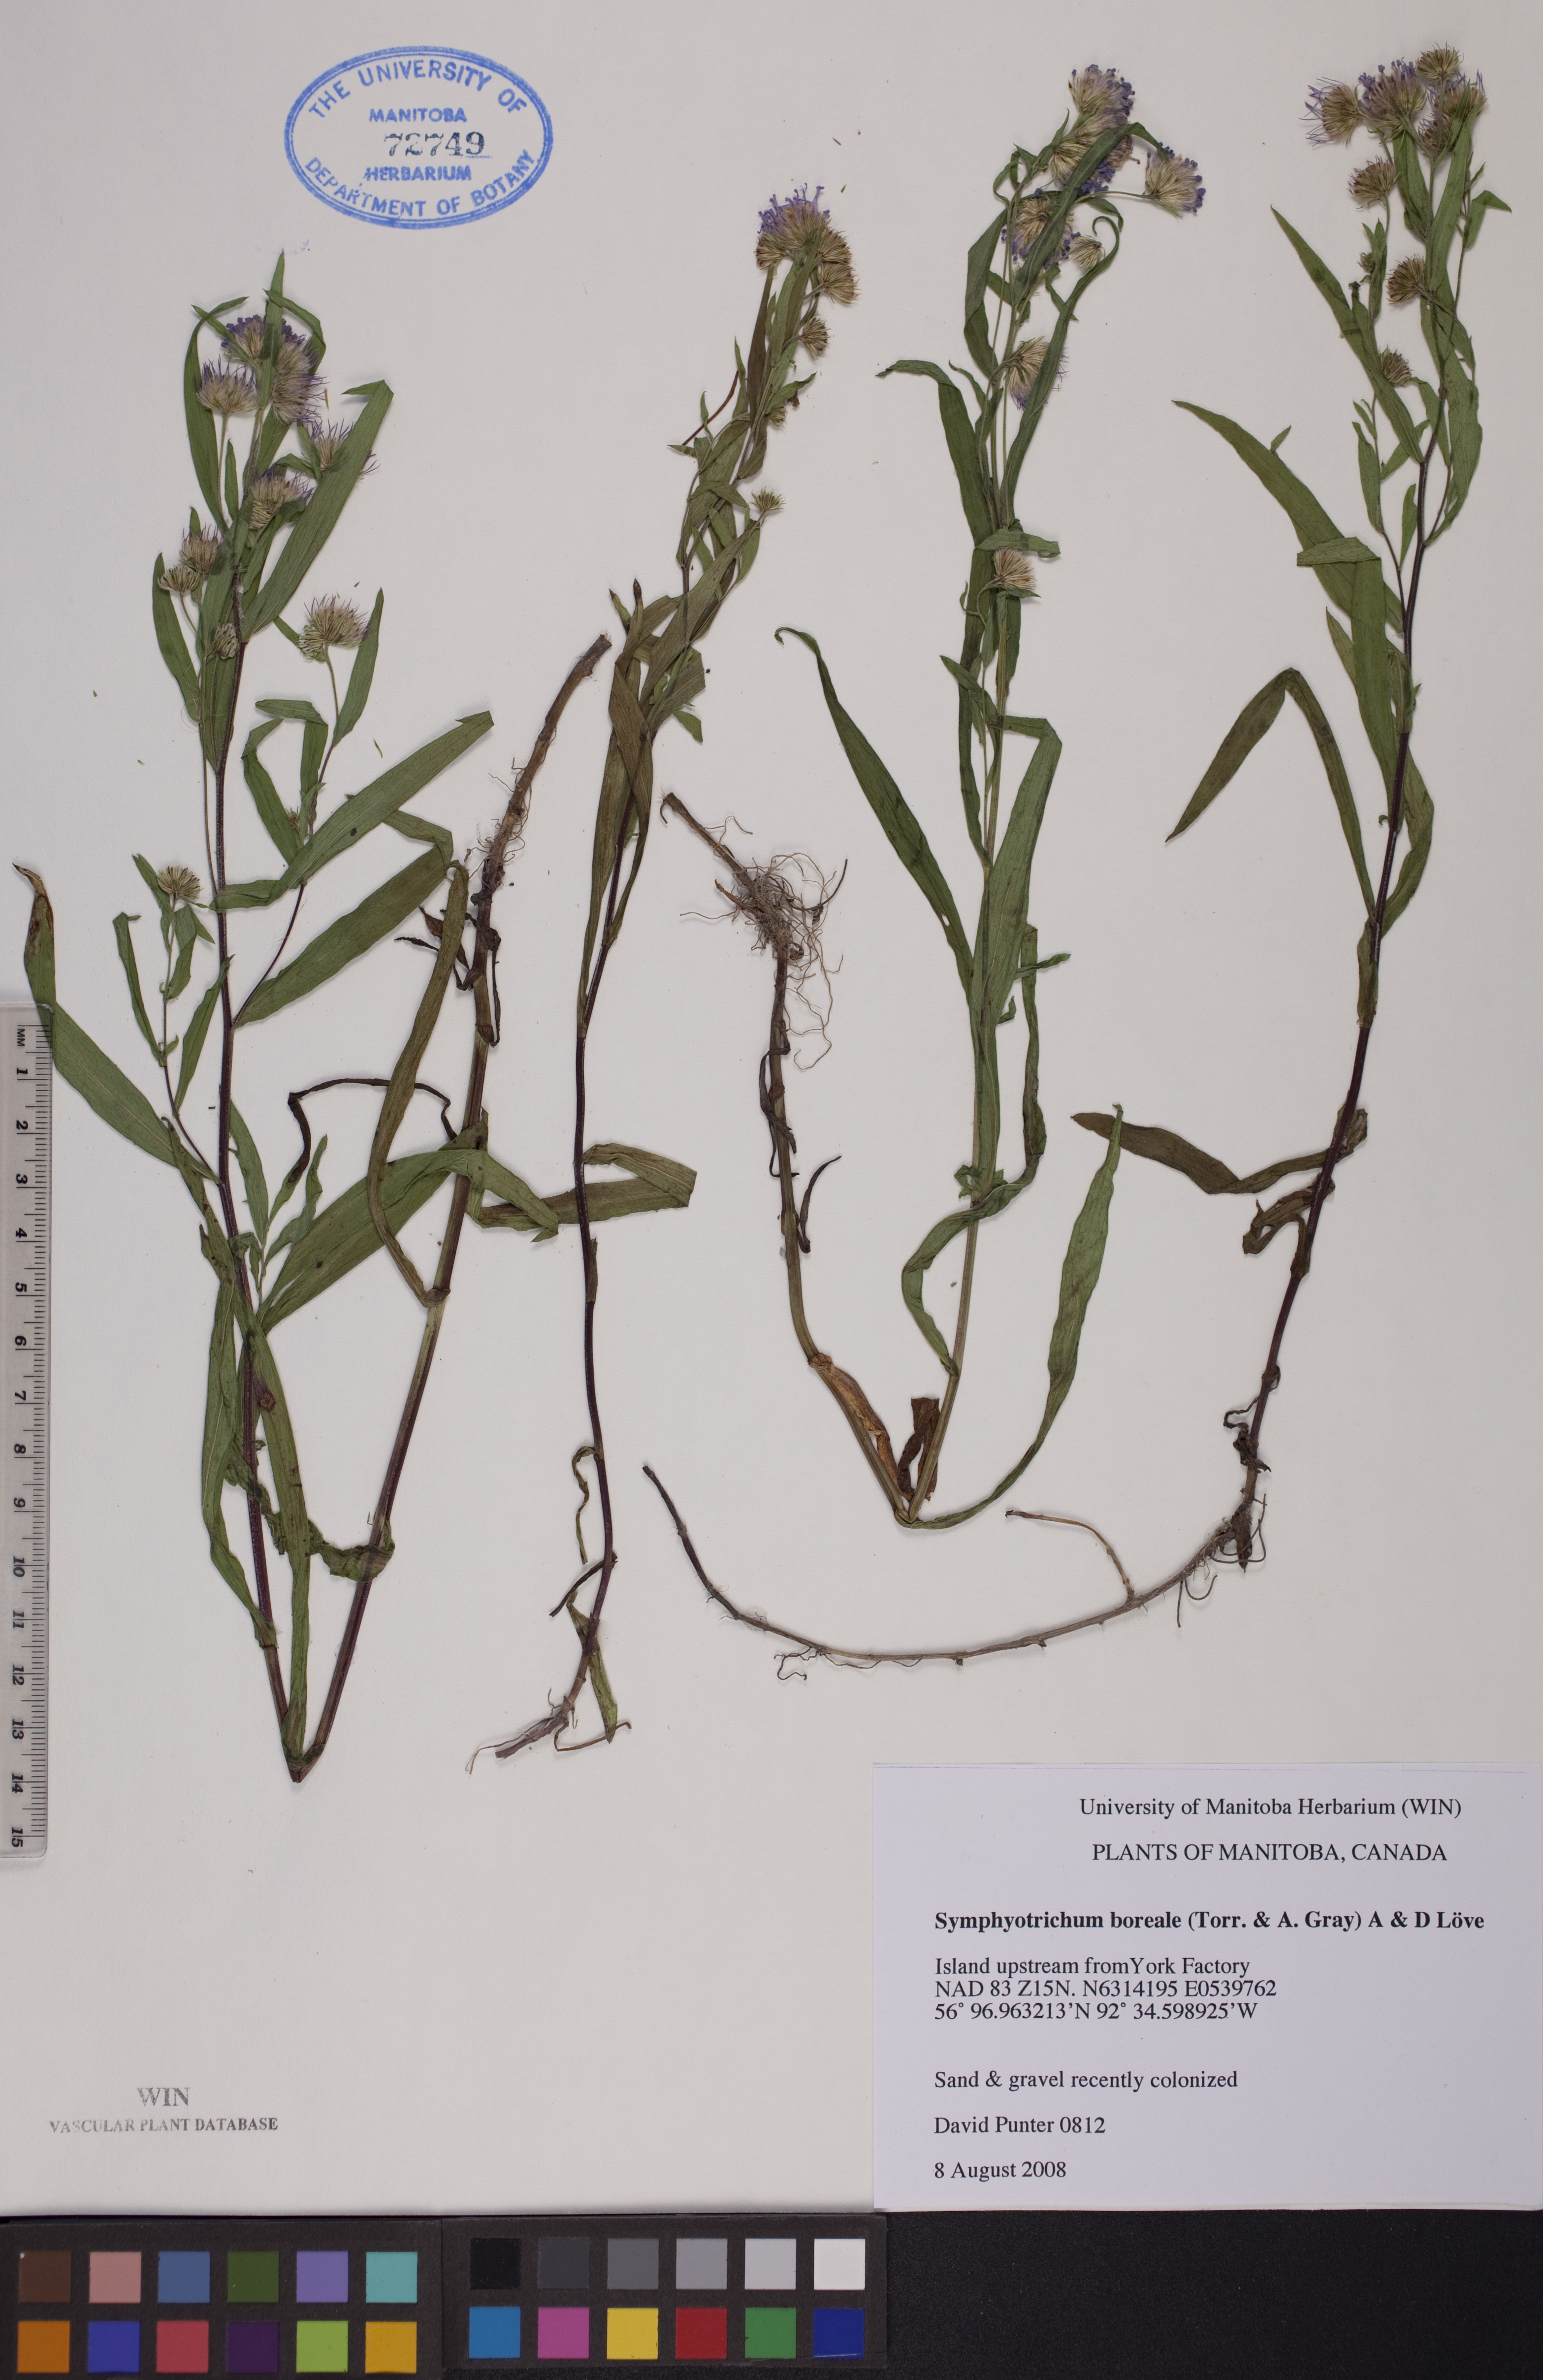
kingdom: Plantae
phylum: Tracheophyta
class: Magnoliopsida
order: Asterales
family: Asteraceae
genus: Symphyotrichum
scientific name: Symphyotrichum boreale
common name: Northern bog aster
